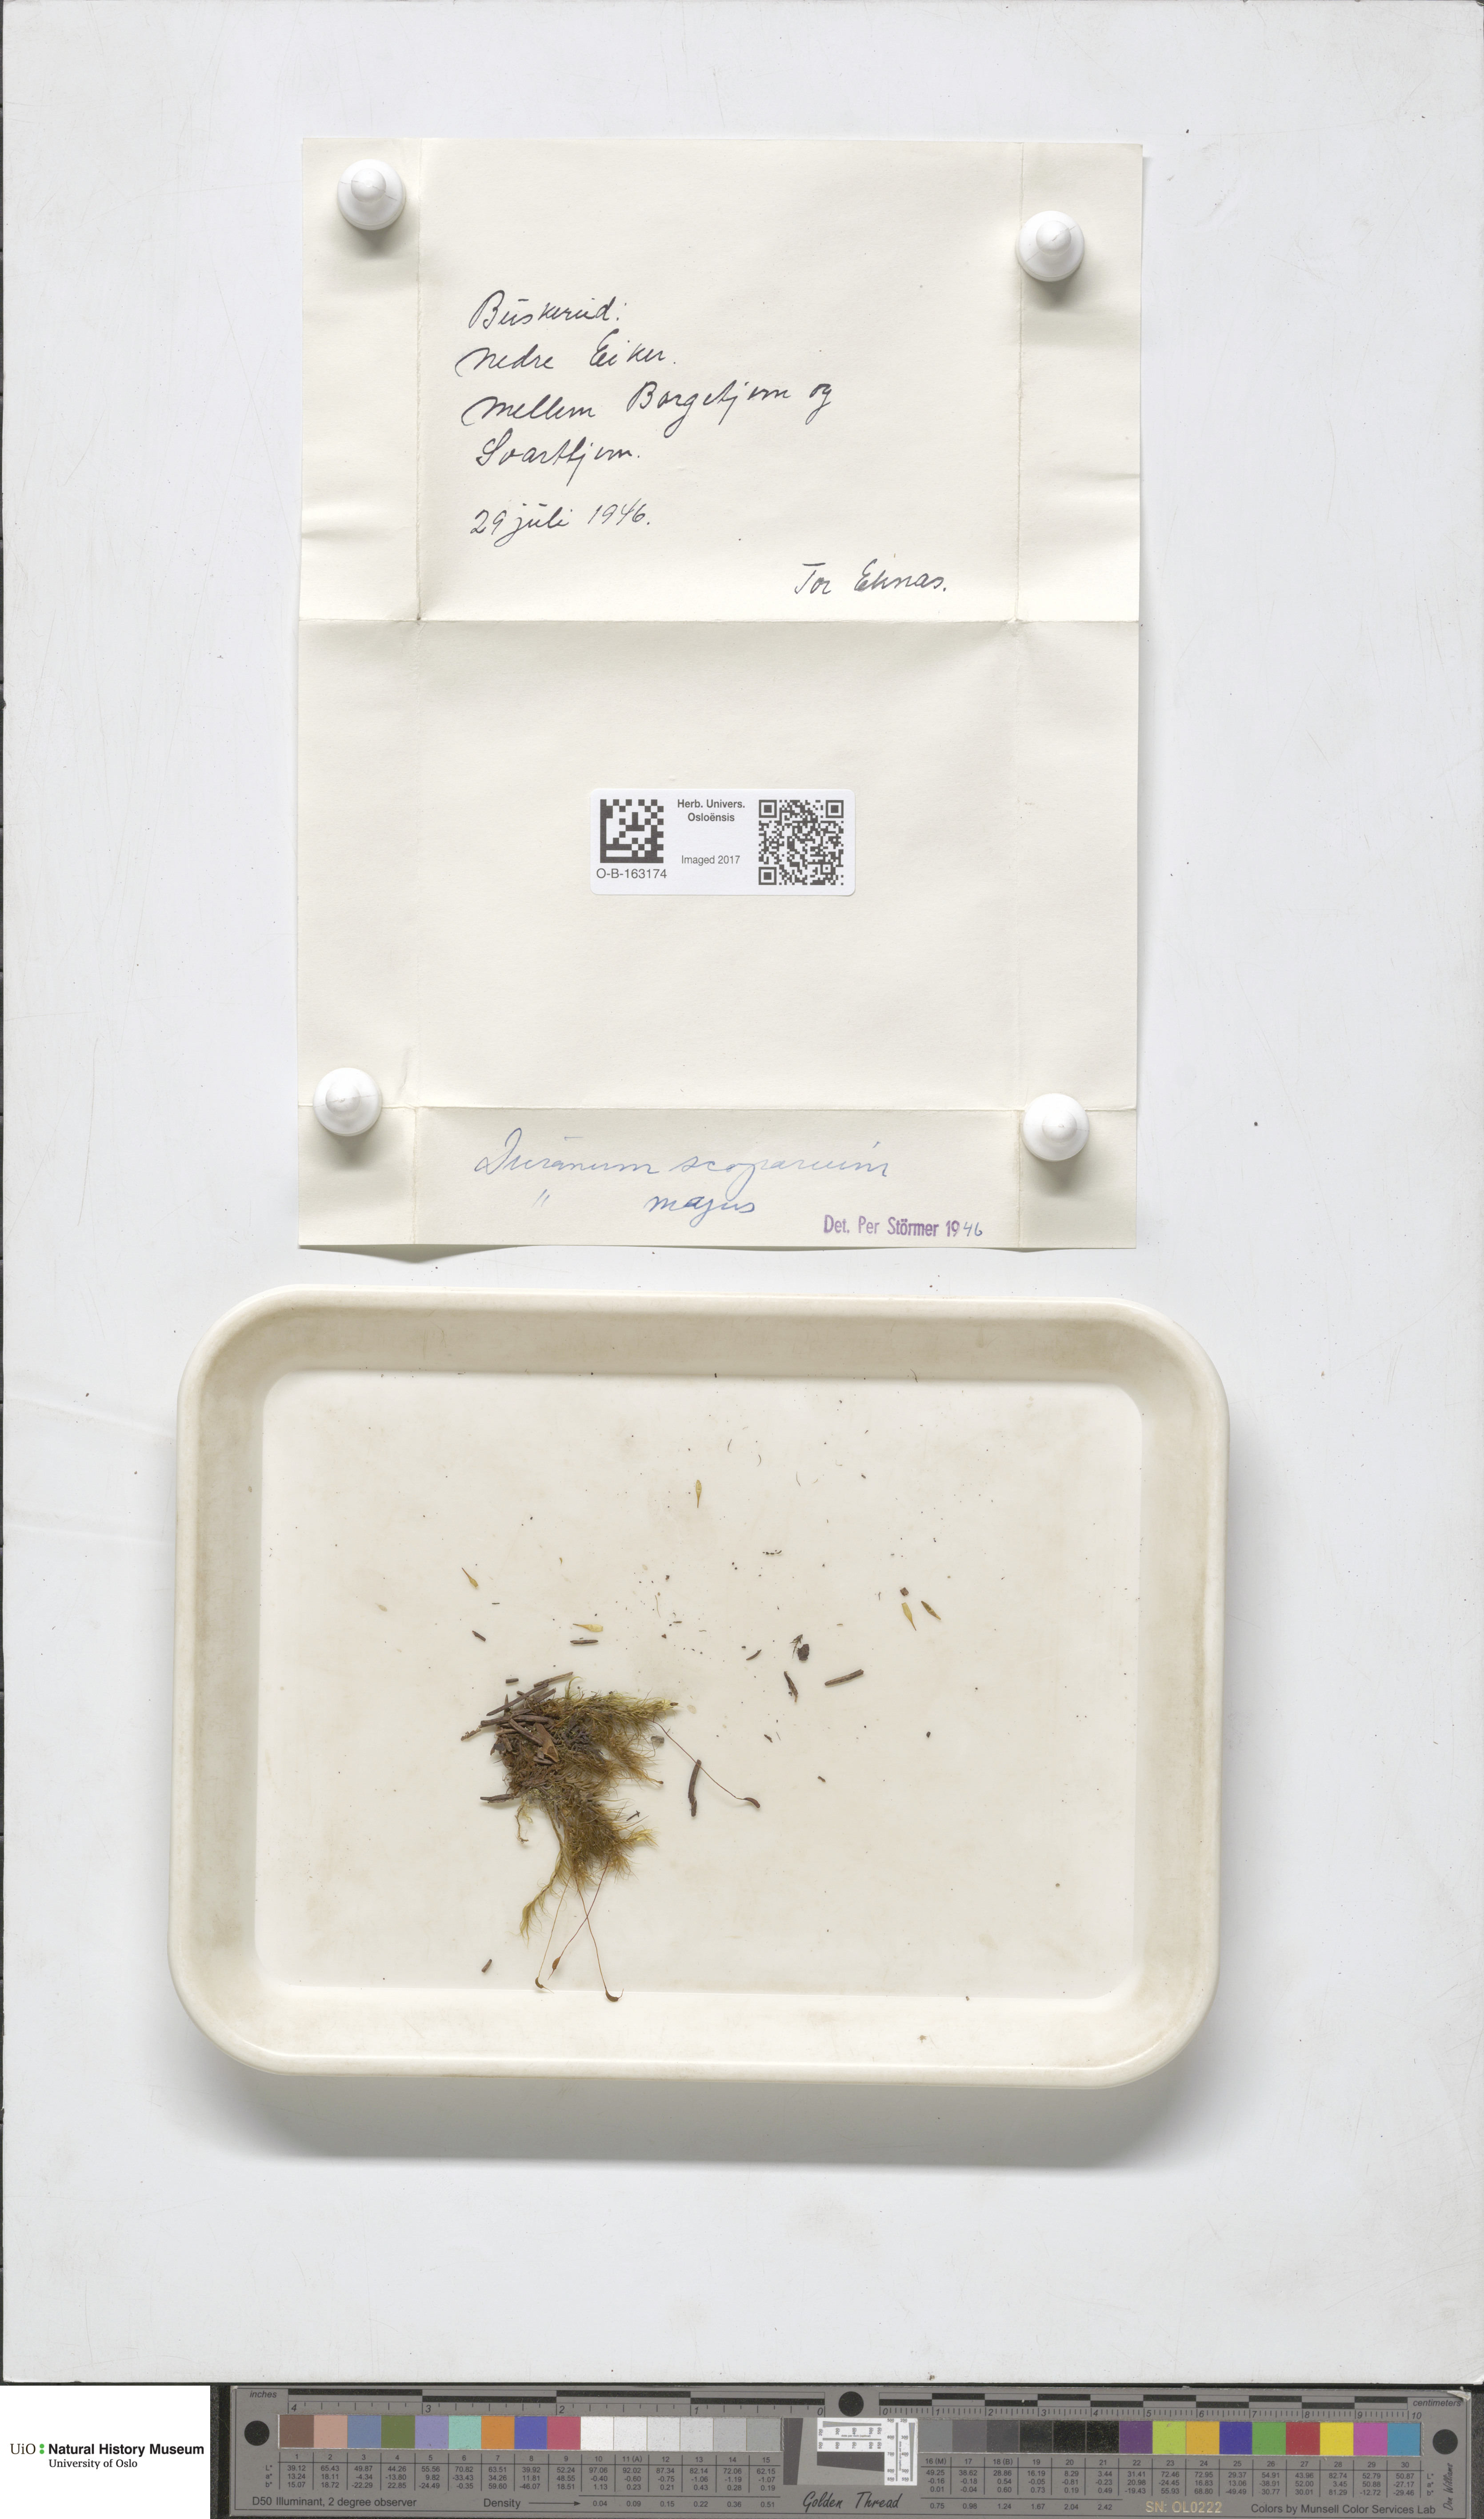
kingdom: Plantae
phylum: Bryophyta
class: Bryopsida
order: Dicranales
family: Dicranaceae
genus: Dicranum
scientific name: Dicranum scoparium
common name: Broom fork-moss
